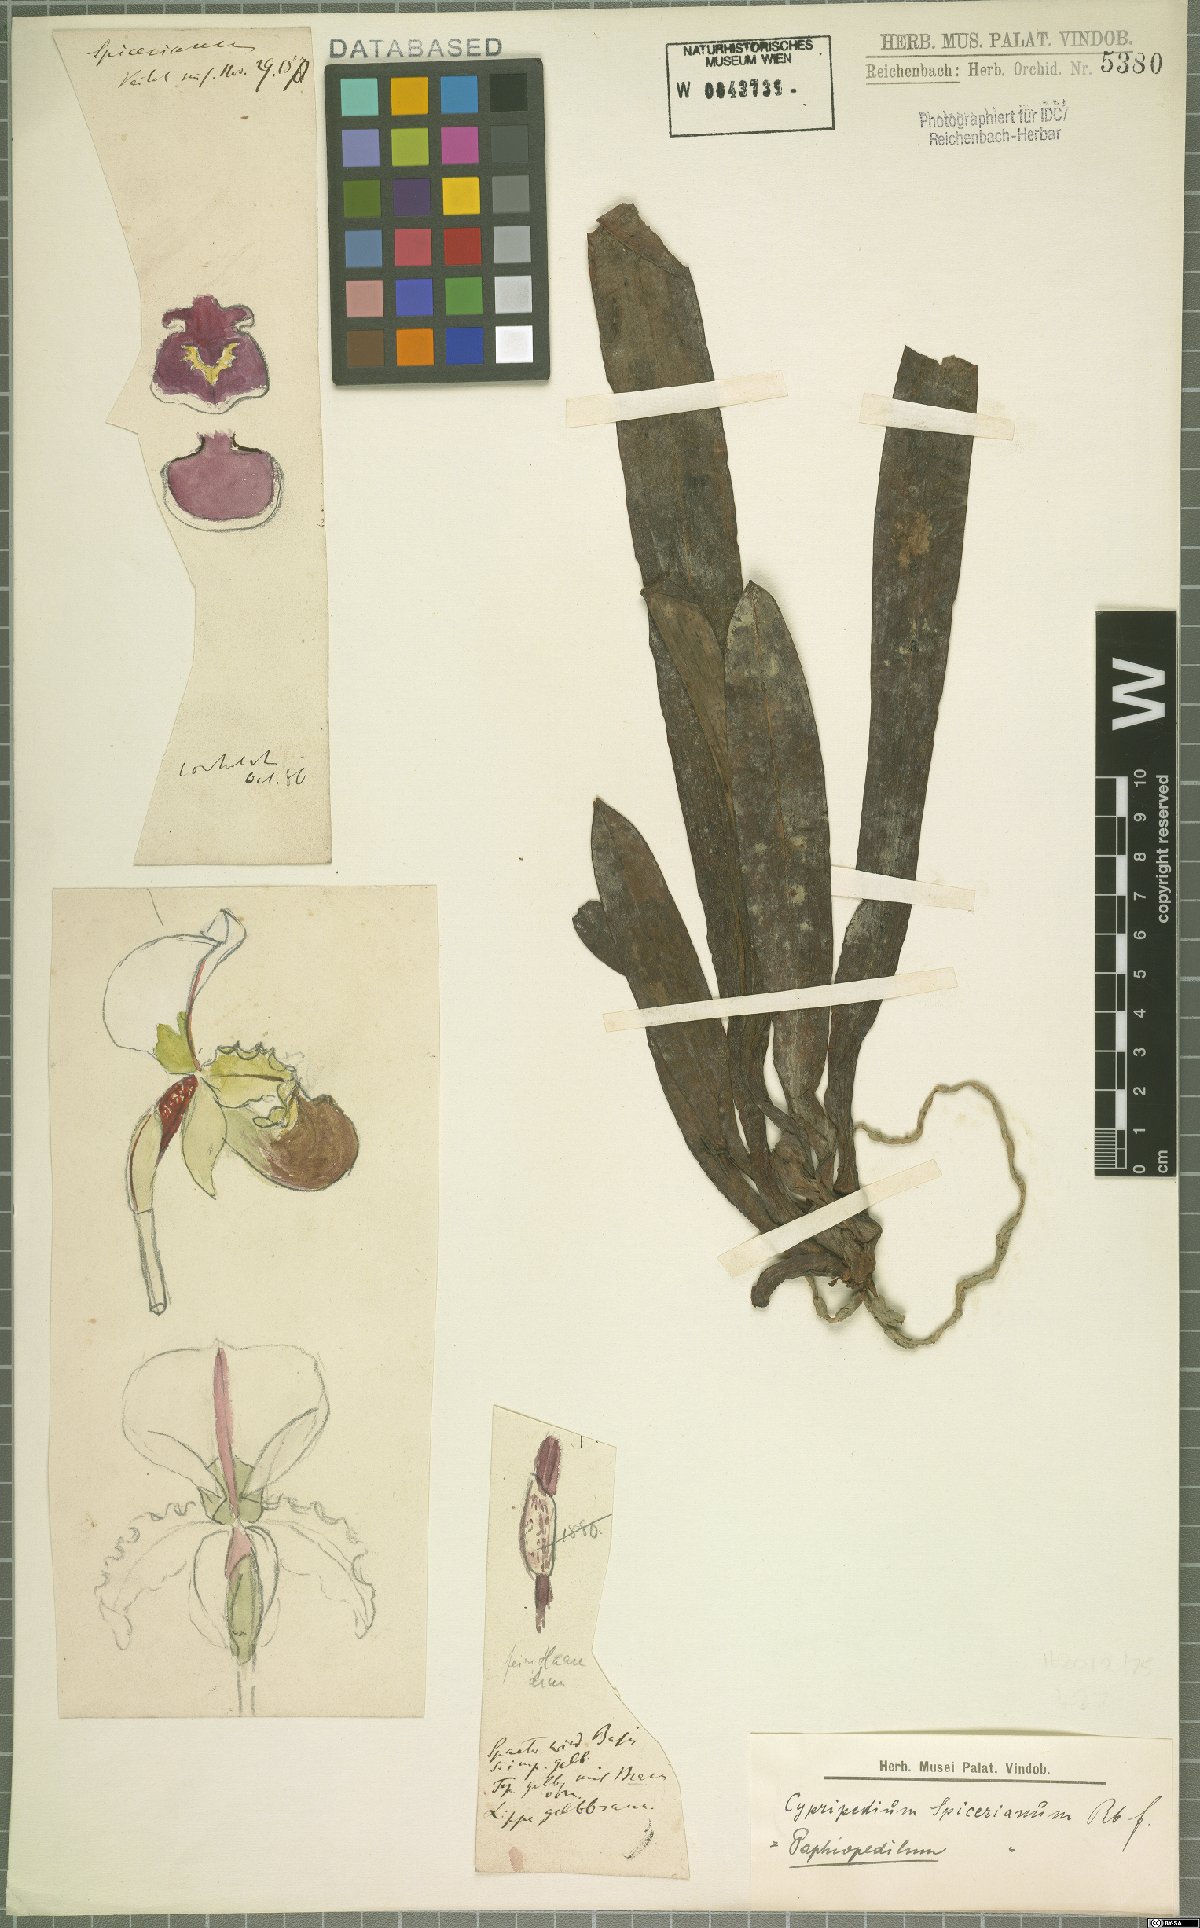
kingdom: Plantae
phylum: Tracheophyta
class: Liliopsida
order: Asparagales
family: Orchidaceae
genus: Paphiopedilum
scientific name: Paphiopedilum spicerianum
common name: Spicer’s paphiopedilum
